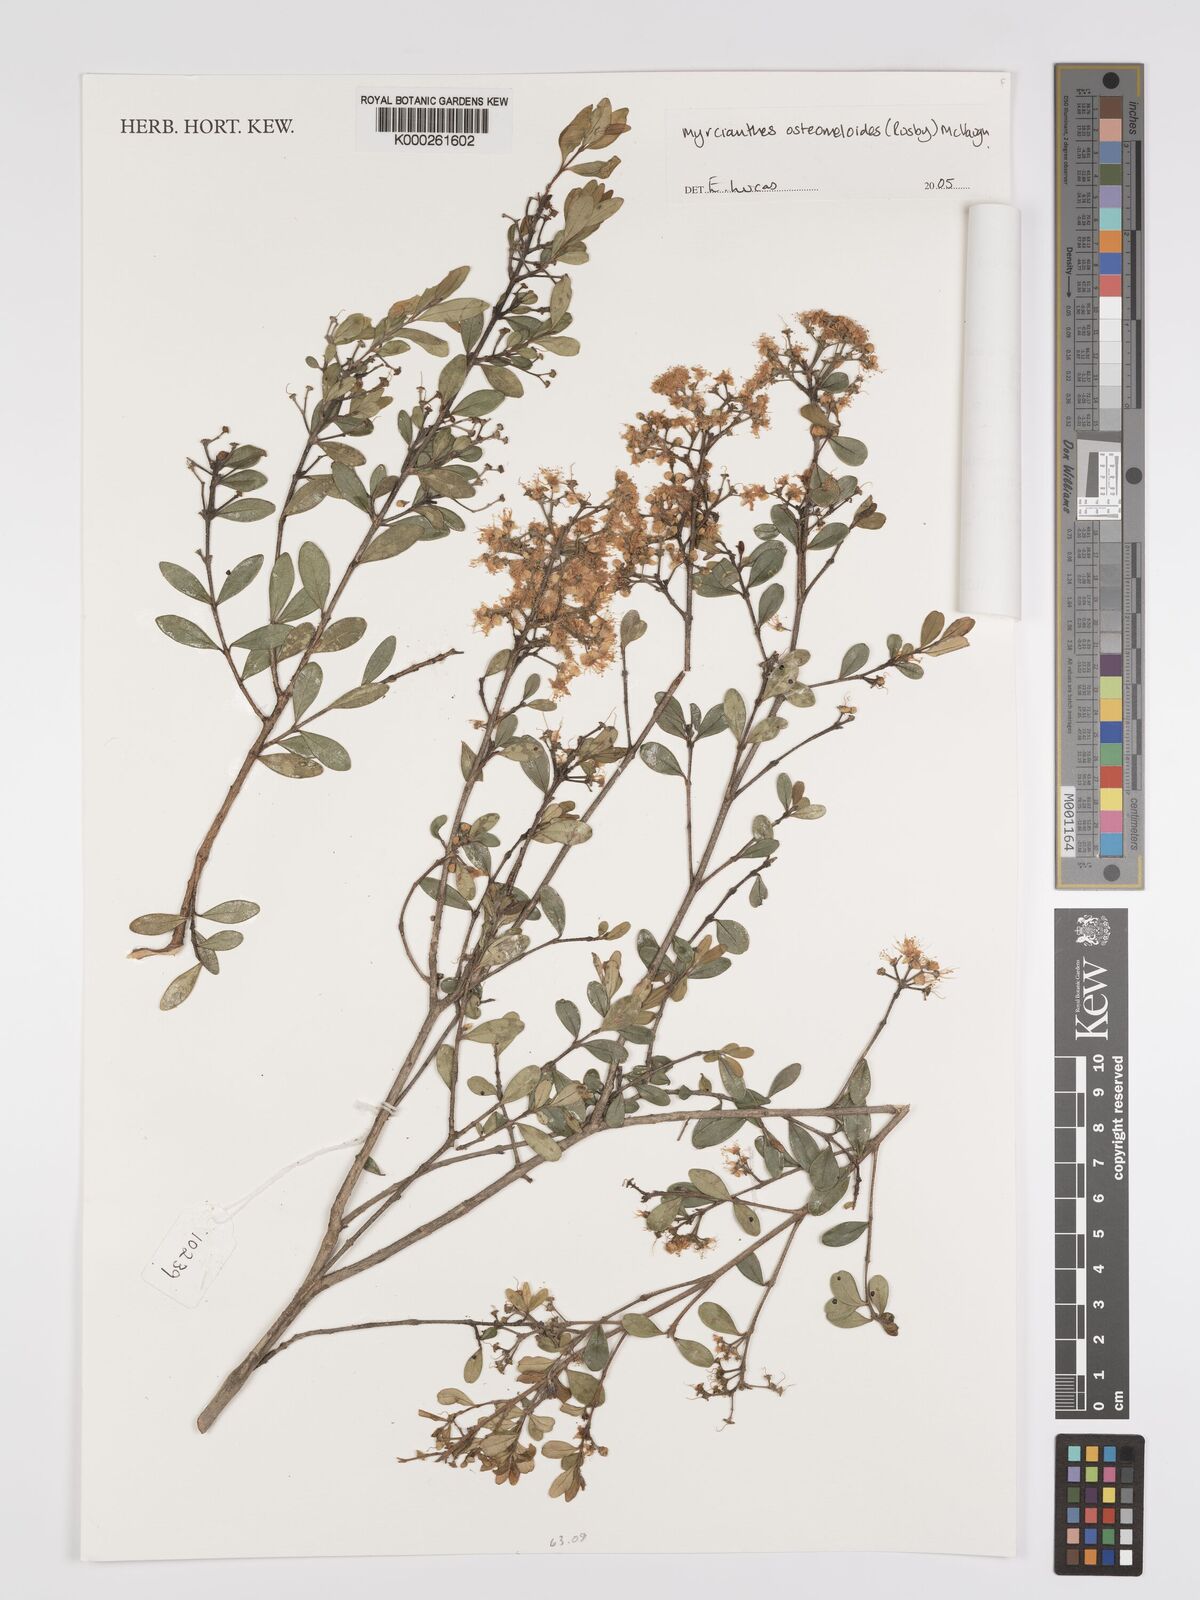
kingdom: Plantae
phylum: Tracheophyta
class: Magnoliopsida
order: Myrtales
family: Myrtaceae
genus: Myrcianthes
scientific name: Myrcianthes osteomeloides
